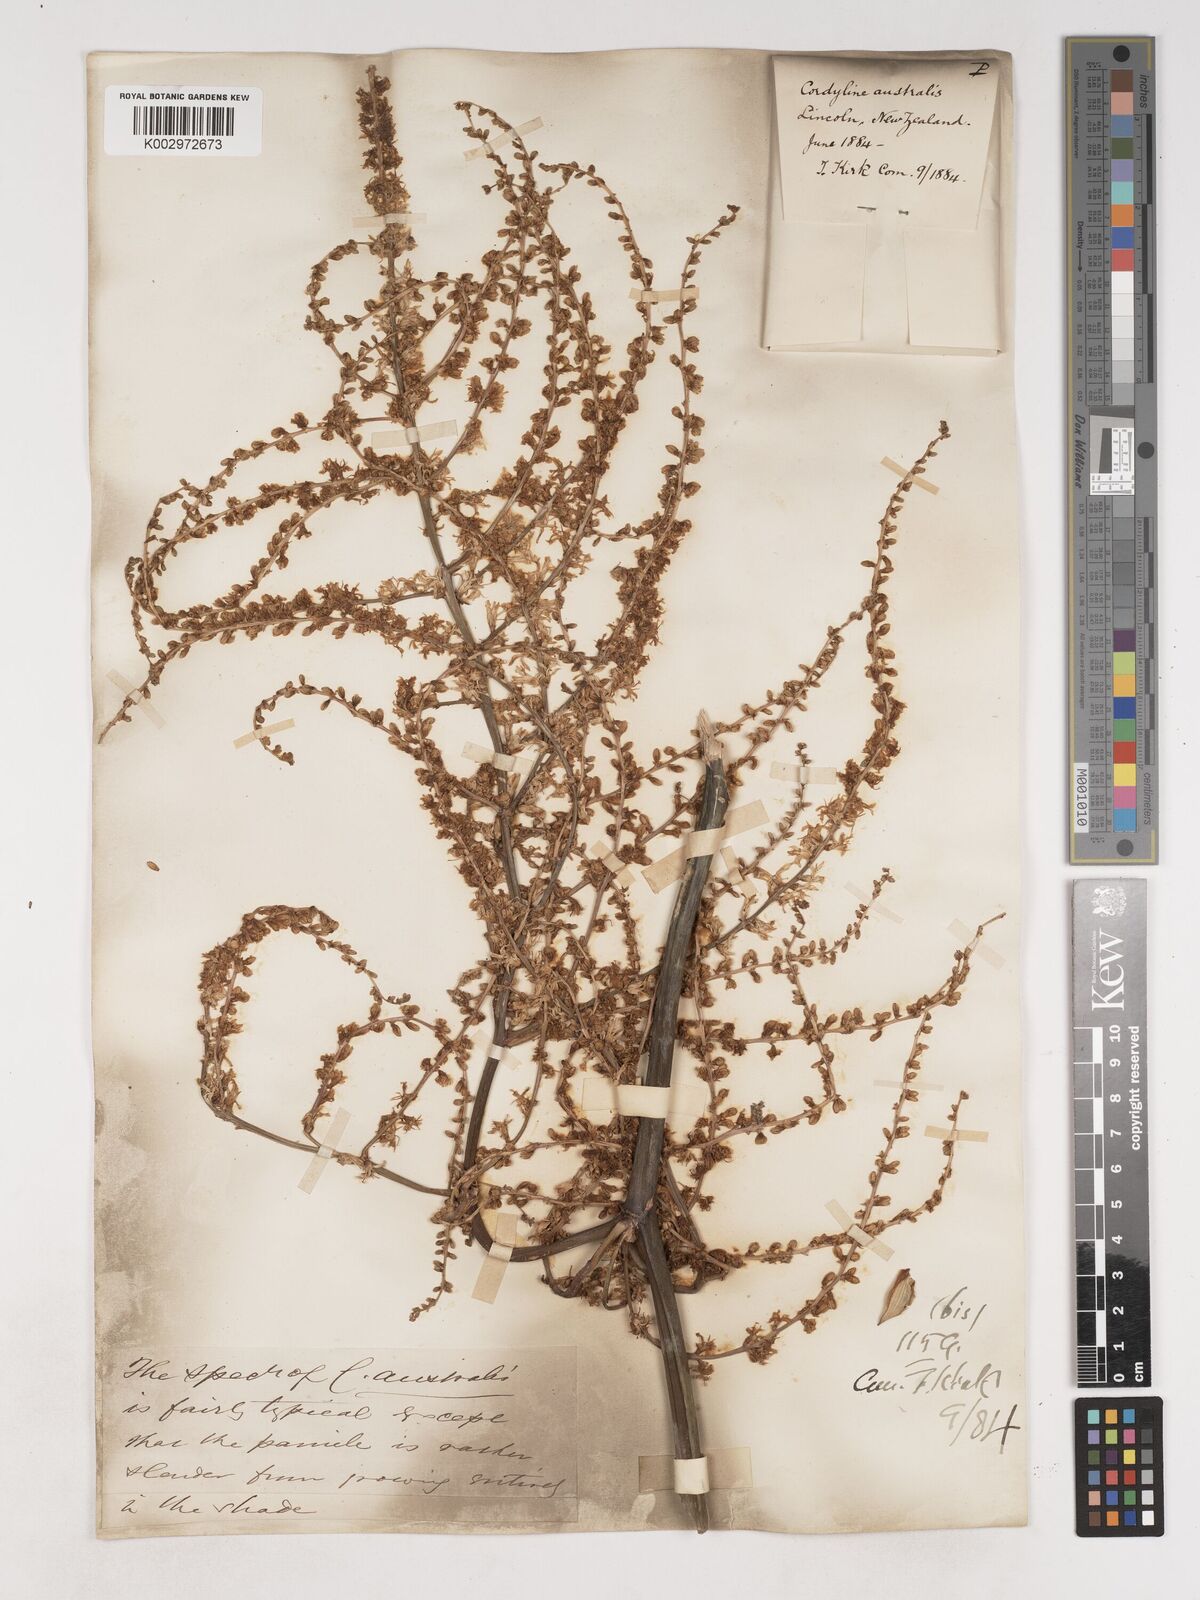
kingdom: Plantae
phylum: Tracheophyta
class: Liliopsida
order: Asparagales
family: Asparagaceae
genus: Cordyline
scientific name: Cordyline australis
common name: Cabbage-palm
